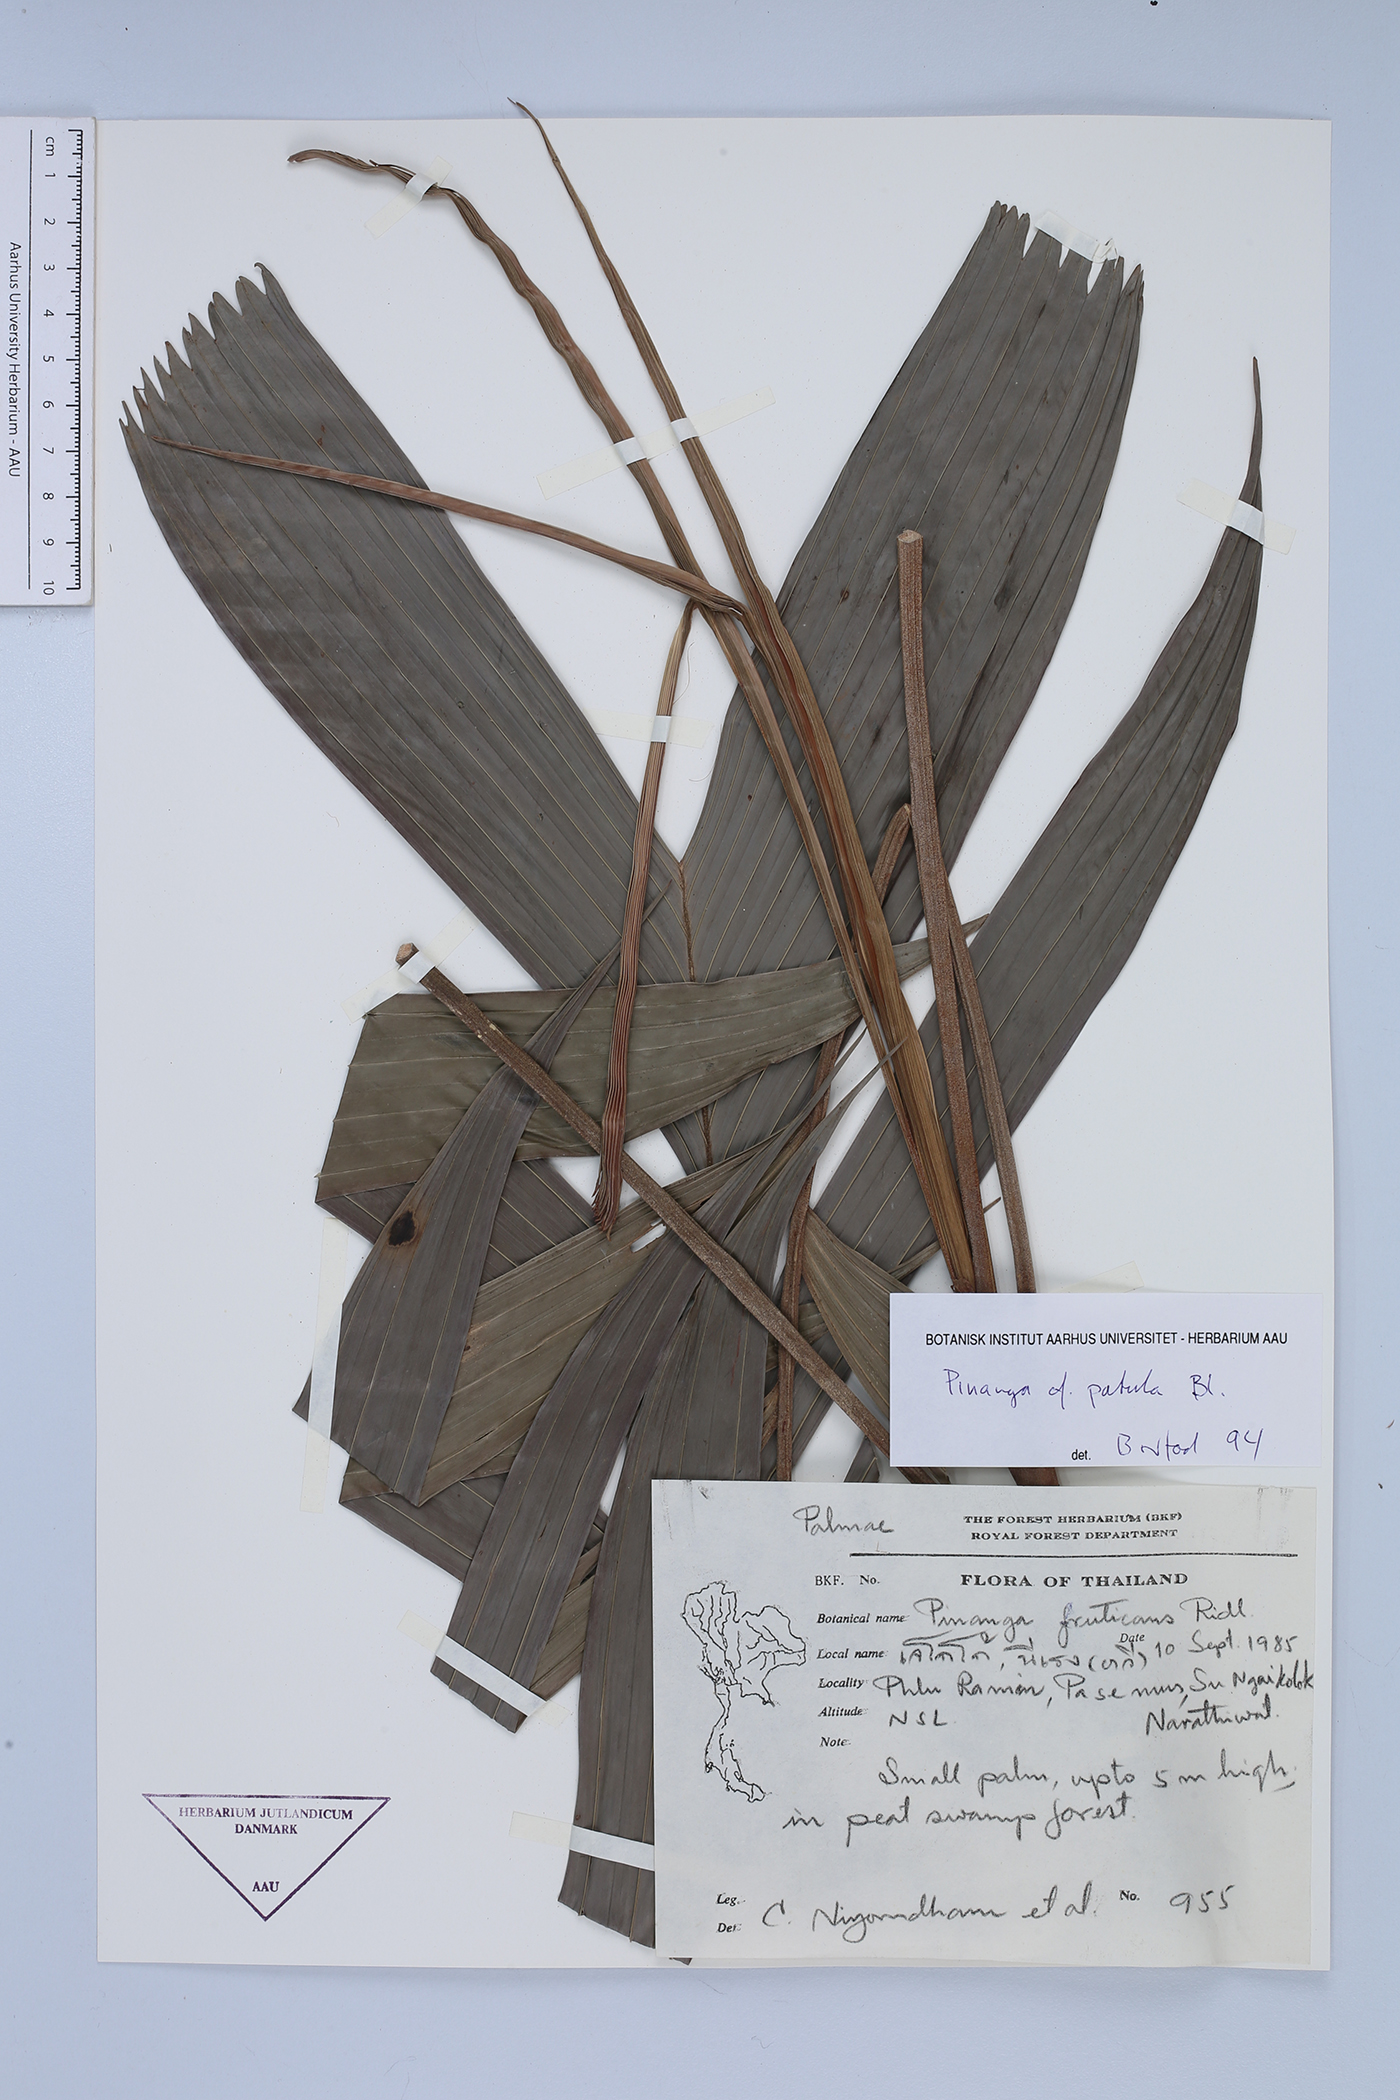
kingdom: Plantae
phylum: Tracheophyta
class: Liliopsida
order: Arecales
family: Arecaceae
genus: Pinanga
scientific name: Pinanga patula
